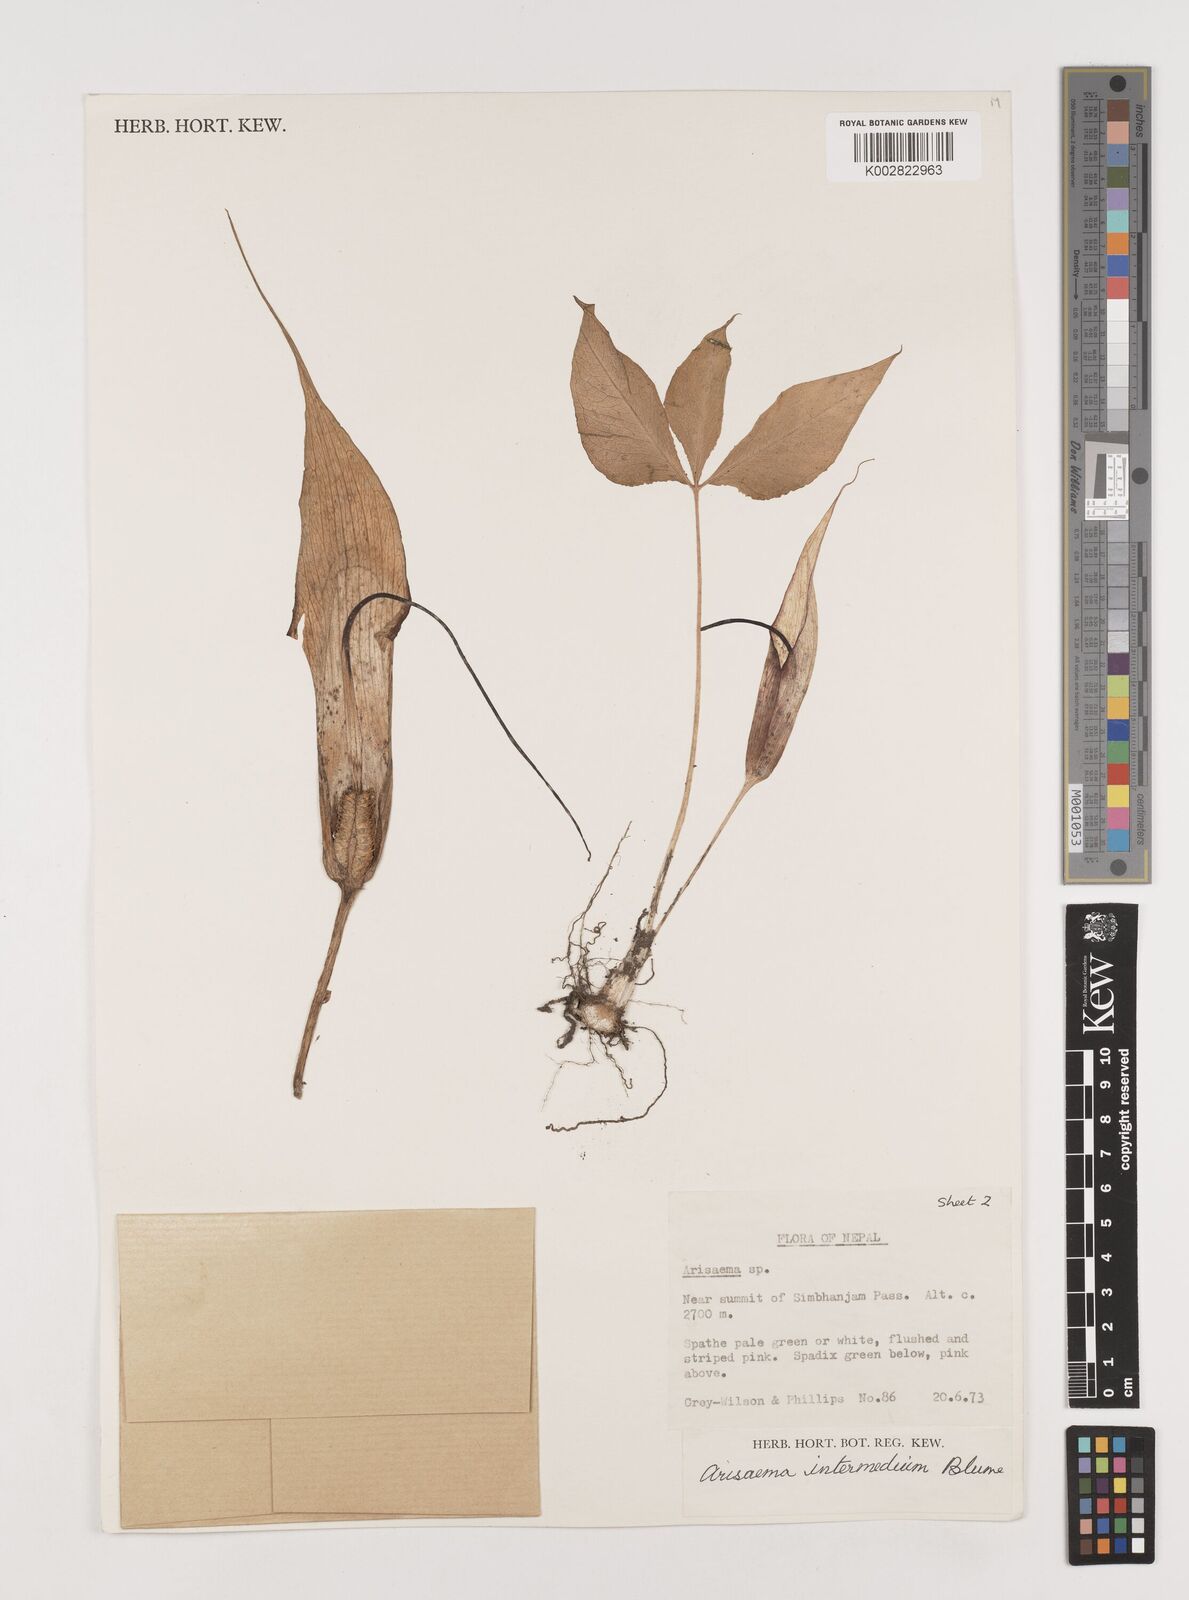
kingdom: Plantae
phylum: Tracheophyta
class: Liliopsida
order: Alismatales
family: Araceae
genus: Arisaema
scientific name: Arisaema intermedium
